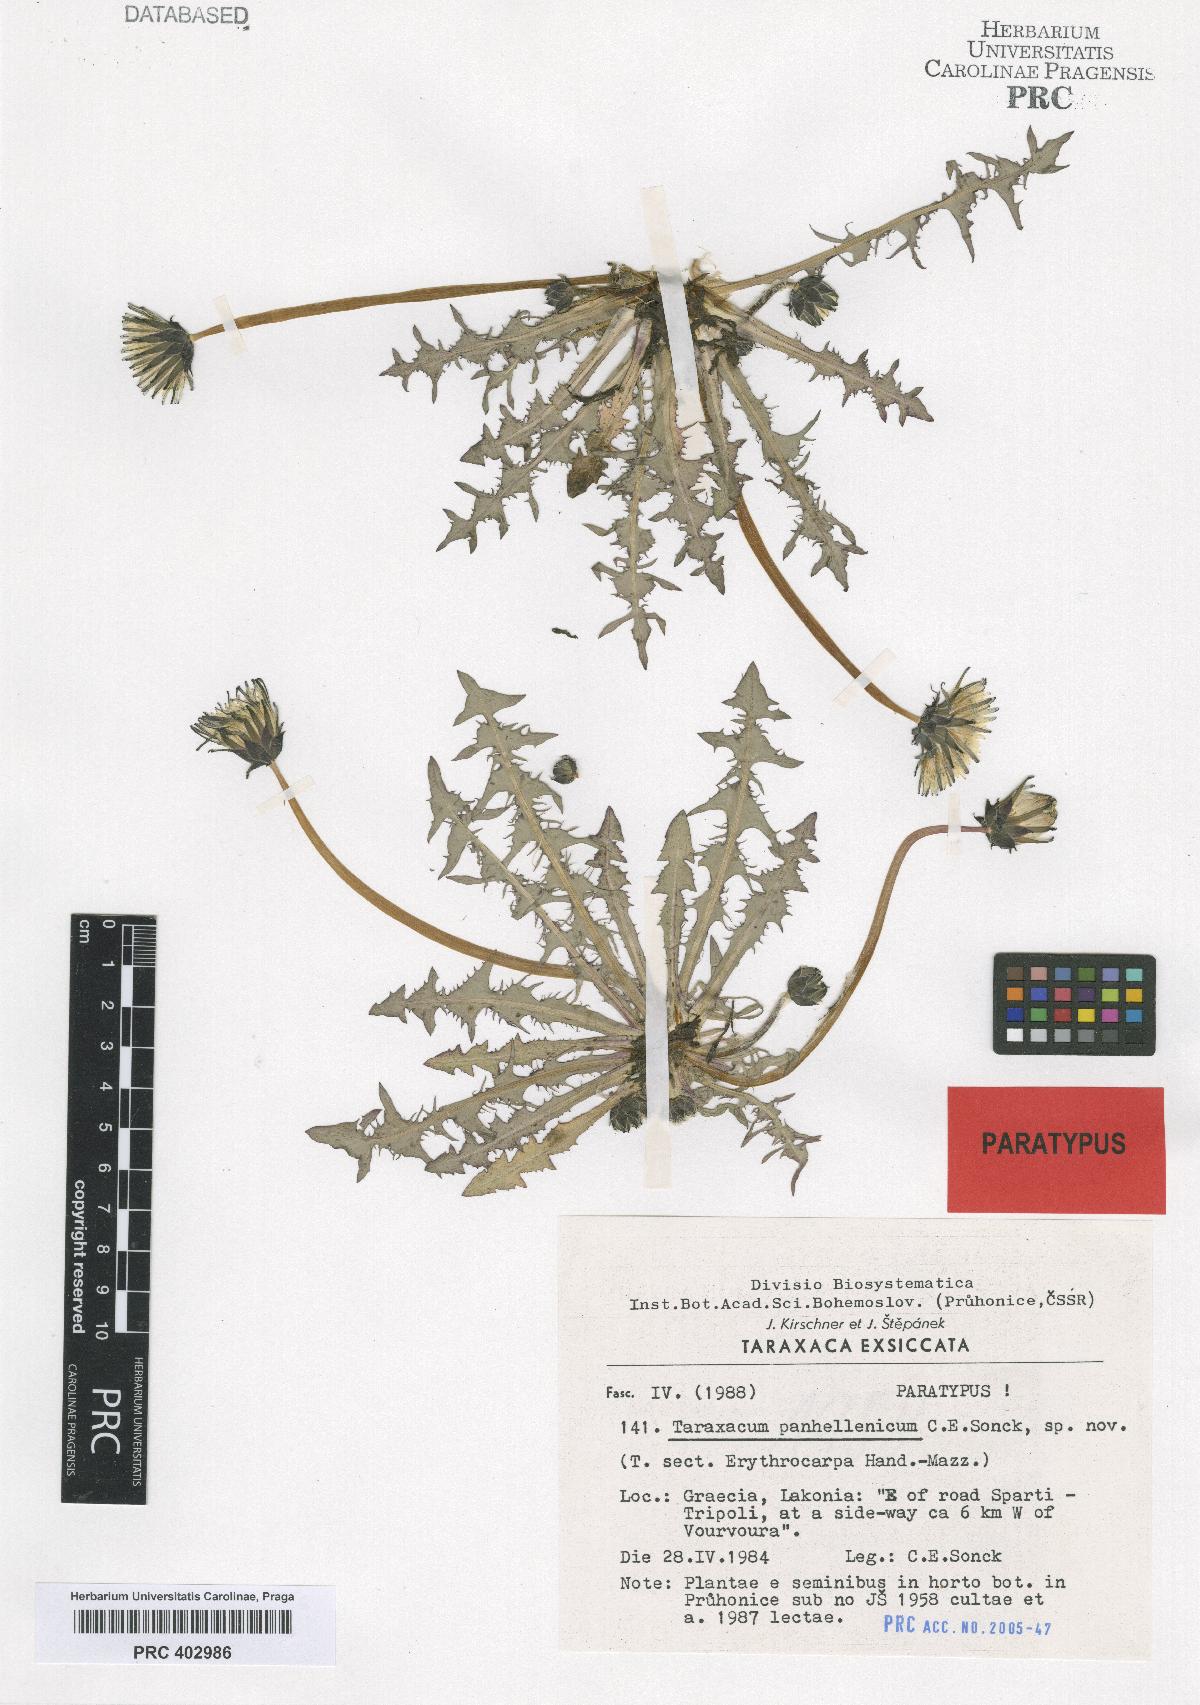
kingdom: Plantae
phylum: Tracheophyta
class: Magnoliopsida
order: Asterales
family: Asteraceae
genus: Taraxacum
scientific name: Taraxacum panhellenicum
